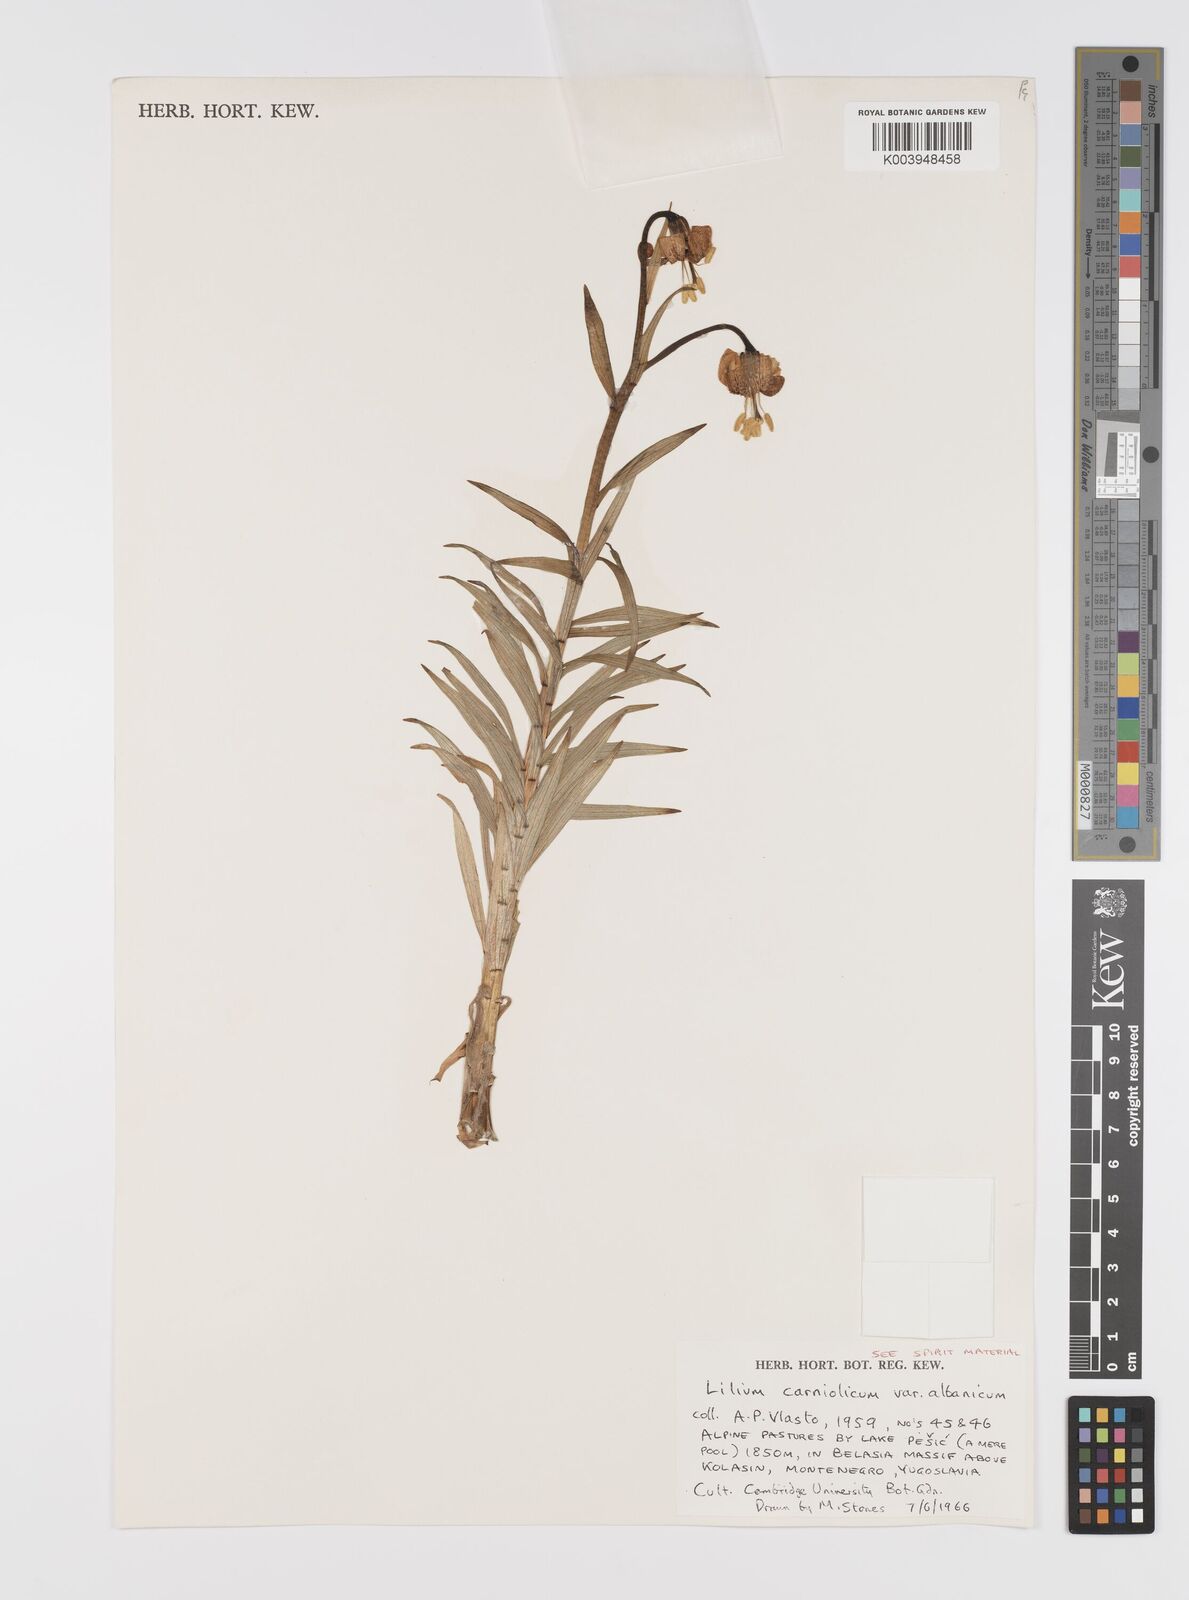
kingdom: Plantae
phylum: Tracheophyta
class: Liliopsida
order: Liliales
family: Liliaceae
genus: Lilium
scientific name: Lilium chalcedonicum
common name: Red martagon of constantinople
